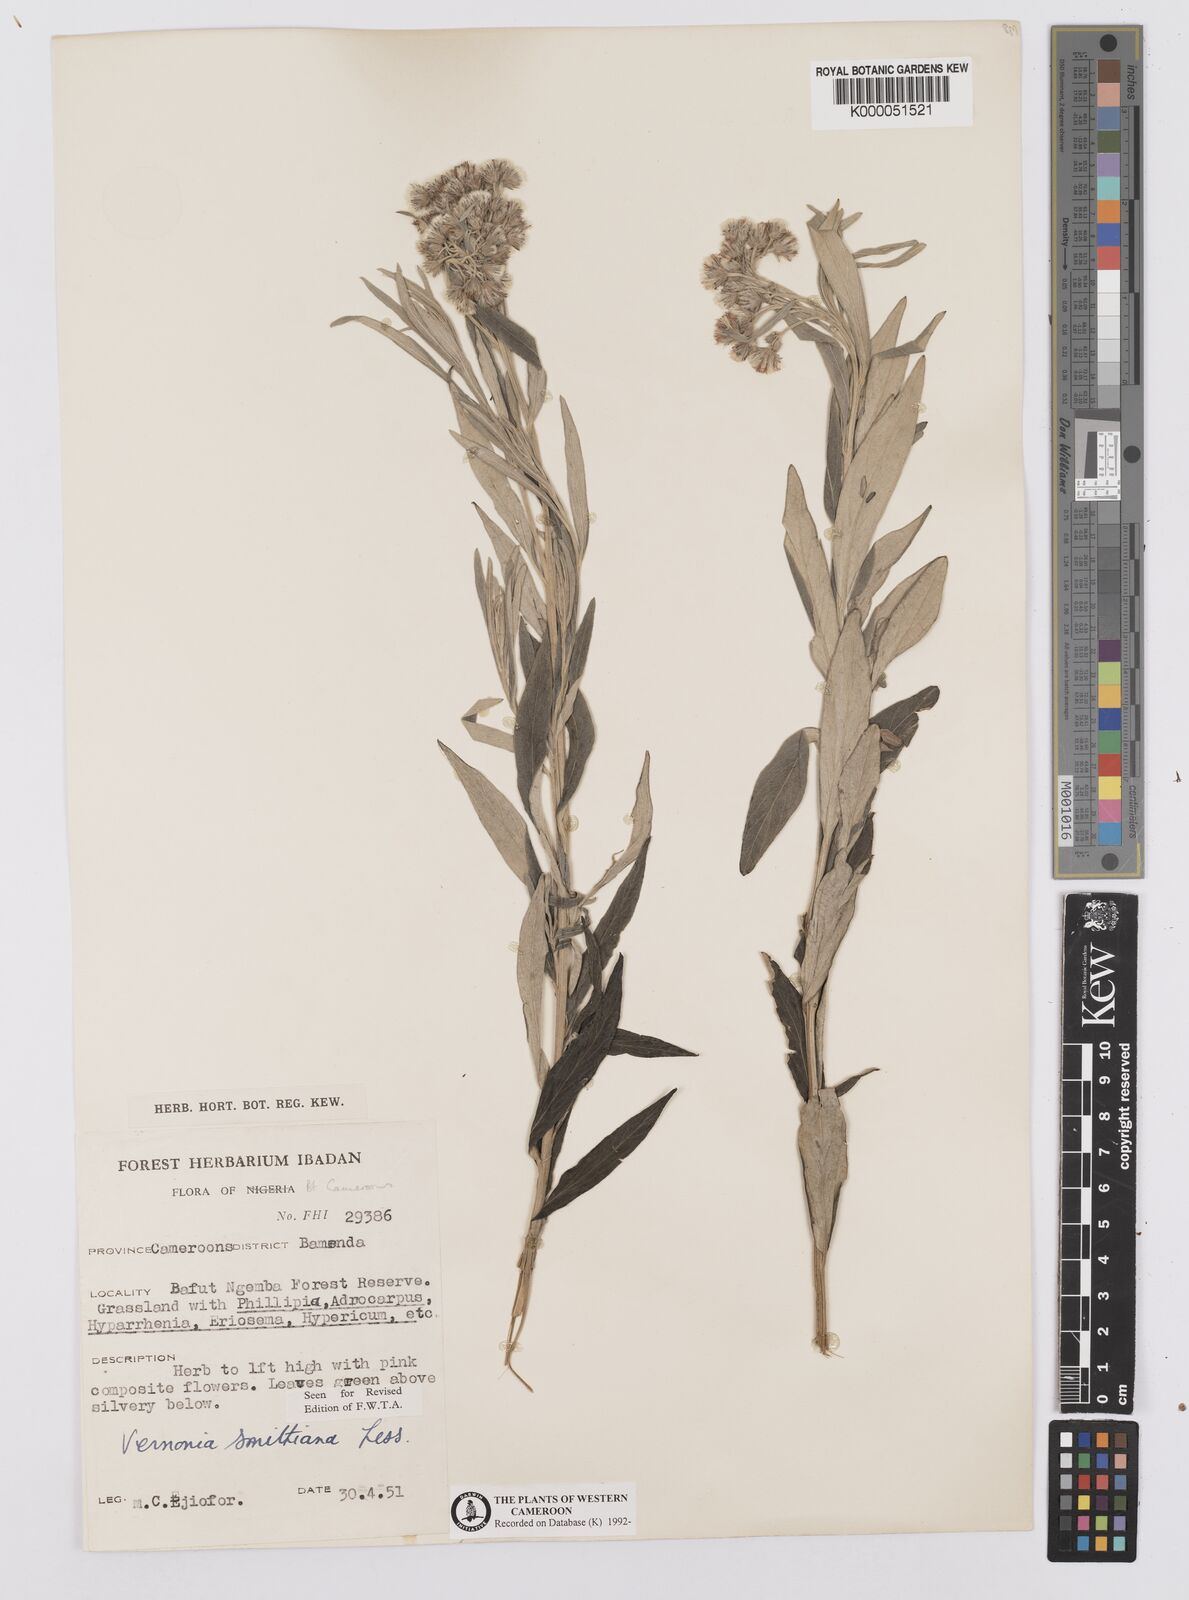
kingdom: Plantae
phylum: Tracheophyta
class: Magnoliopsida
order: Asterales
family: Asteraceae
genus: Hilliardiella
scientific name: Hilliardiella smithiana
